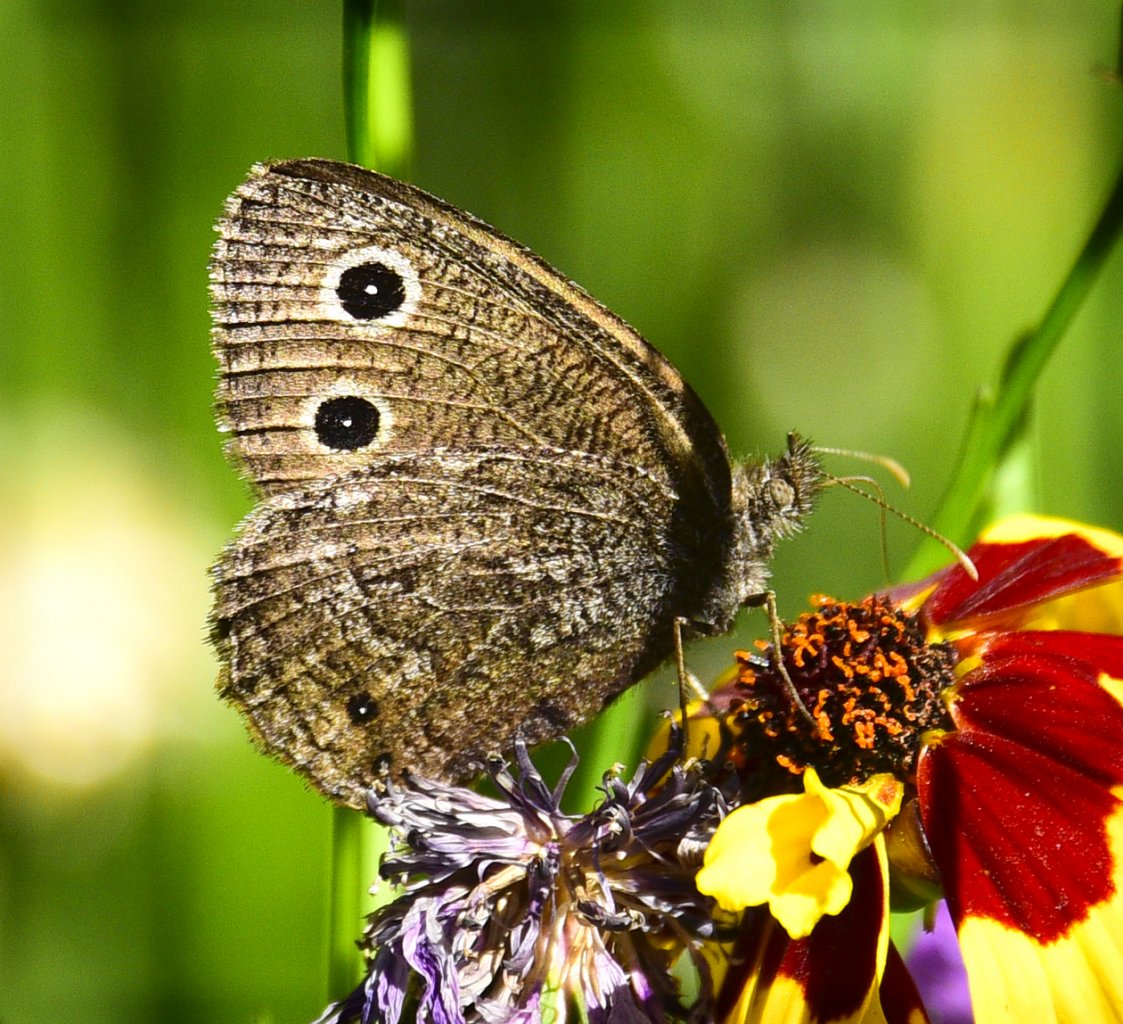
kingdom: Animalia
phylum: Arthropoda
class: Insecta
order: Lepidoptera
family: Nymphalidae
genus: Cercyonis
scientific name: Cercyonis oetus
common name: Small Wood-Nymph
